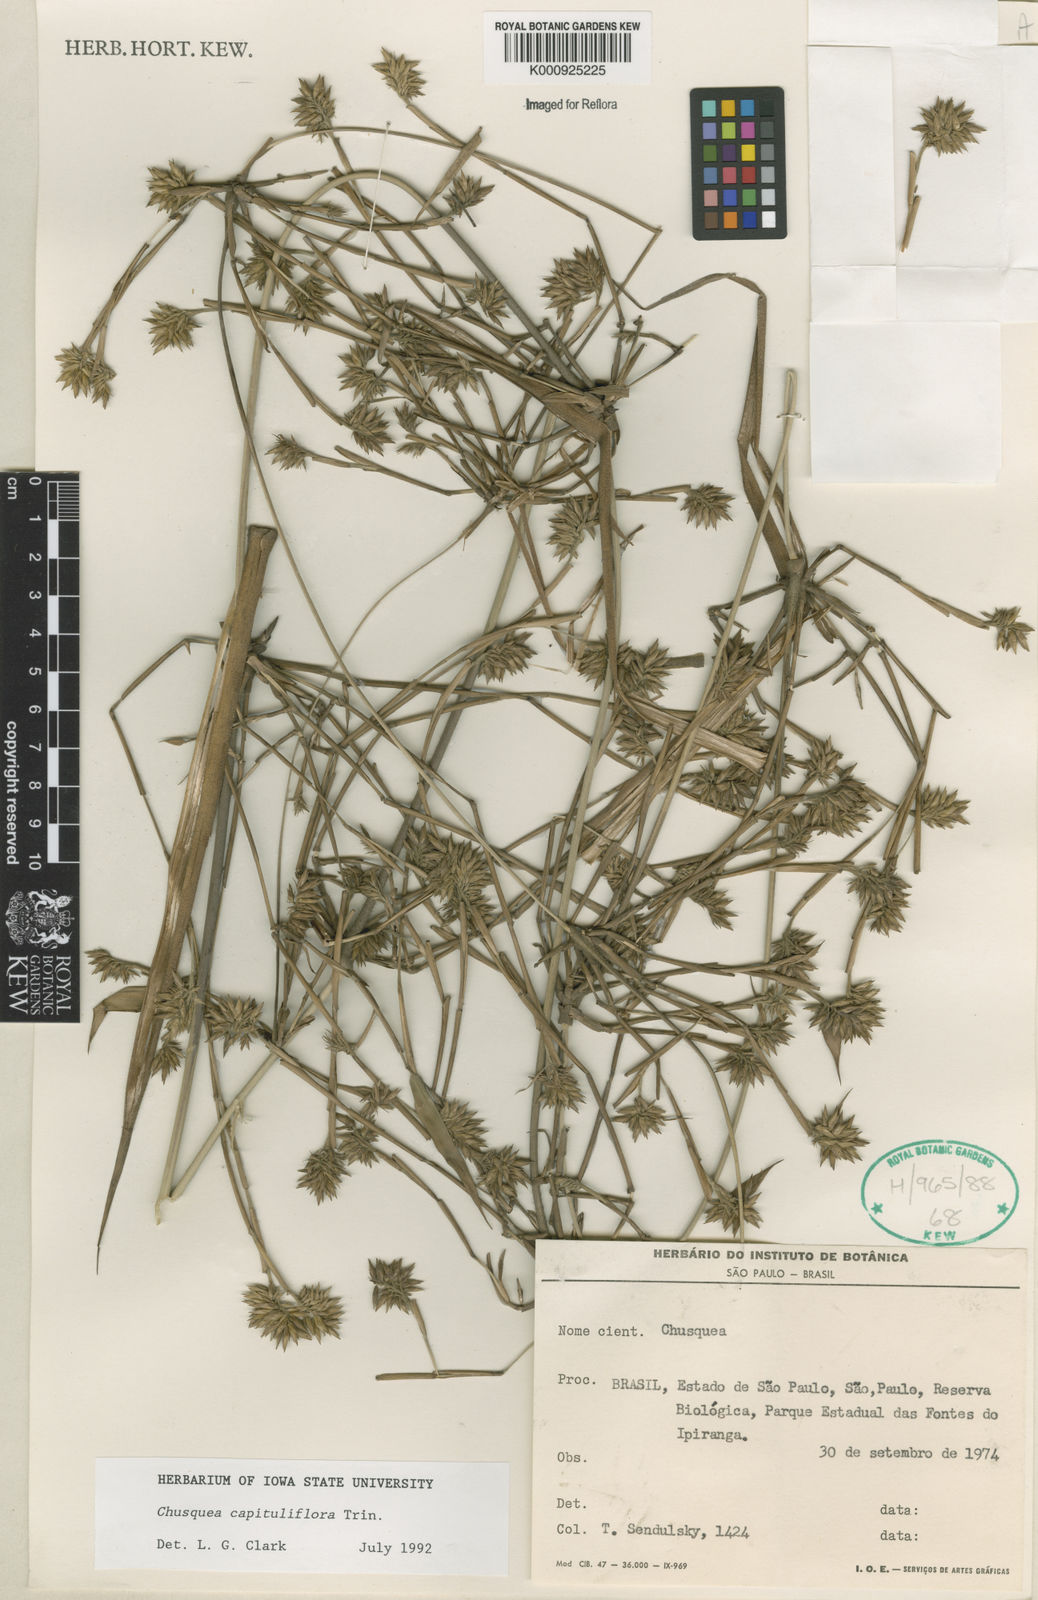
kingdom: Plantae
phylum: Tracheophyta
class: Liliopsida
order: Poales
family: Poaceae
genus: Chusquea
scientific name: Chusquea capituliflora
